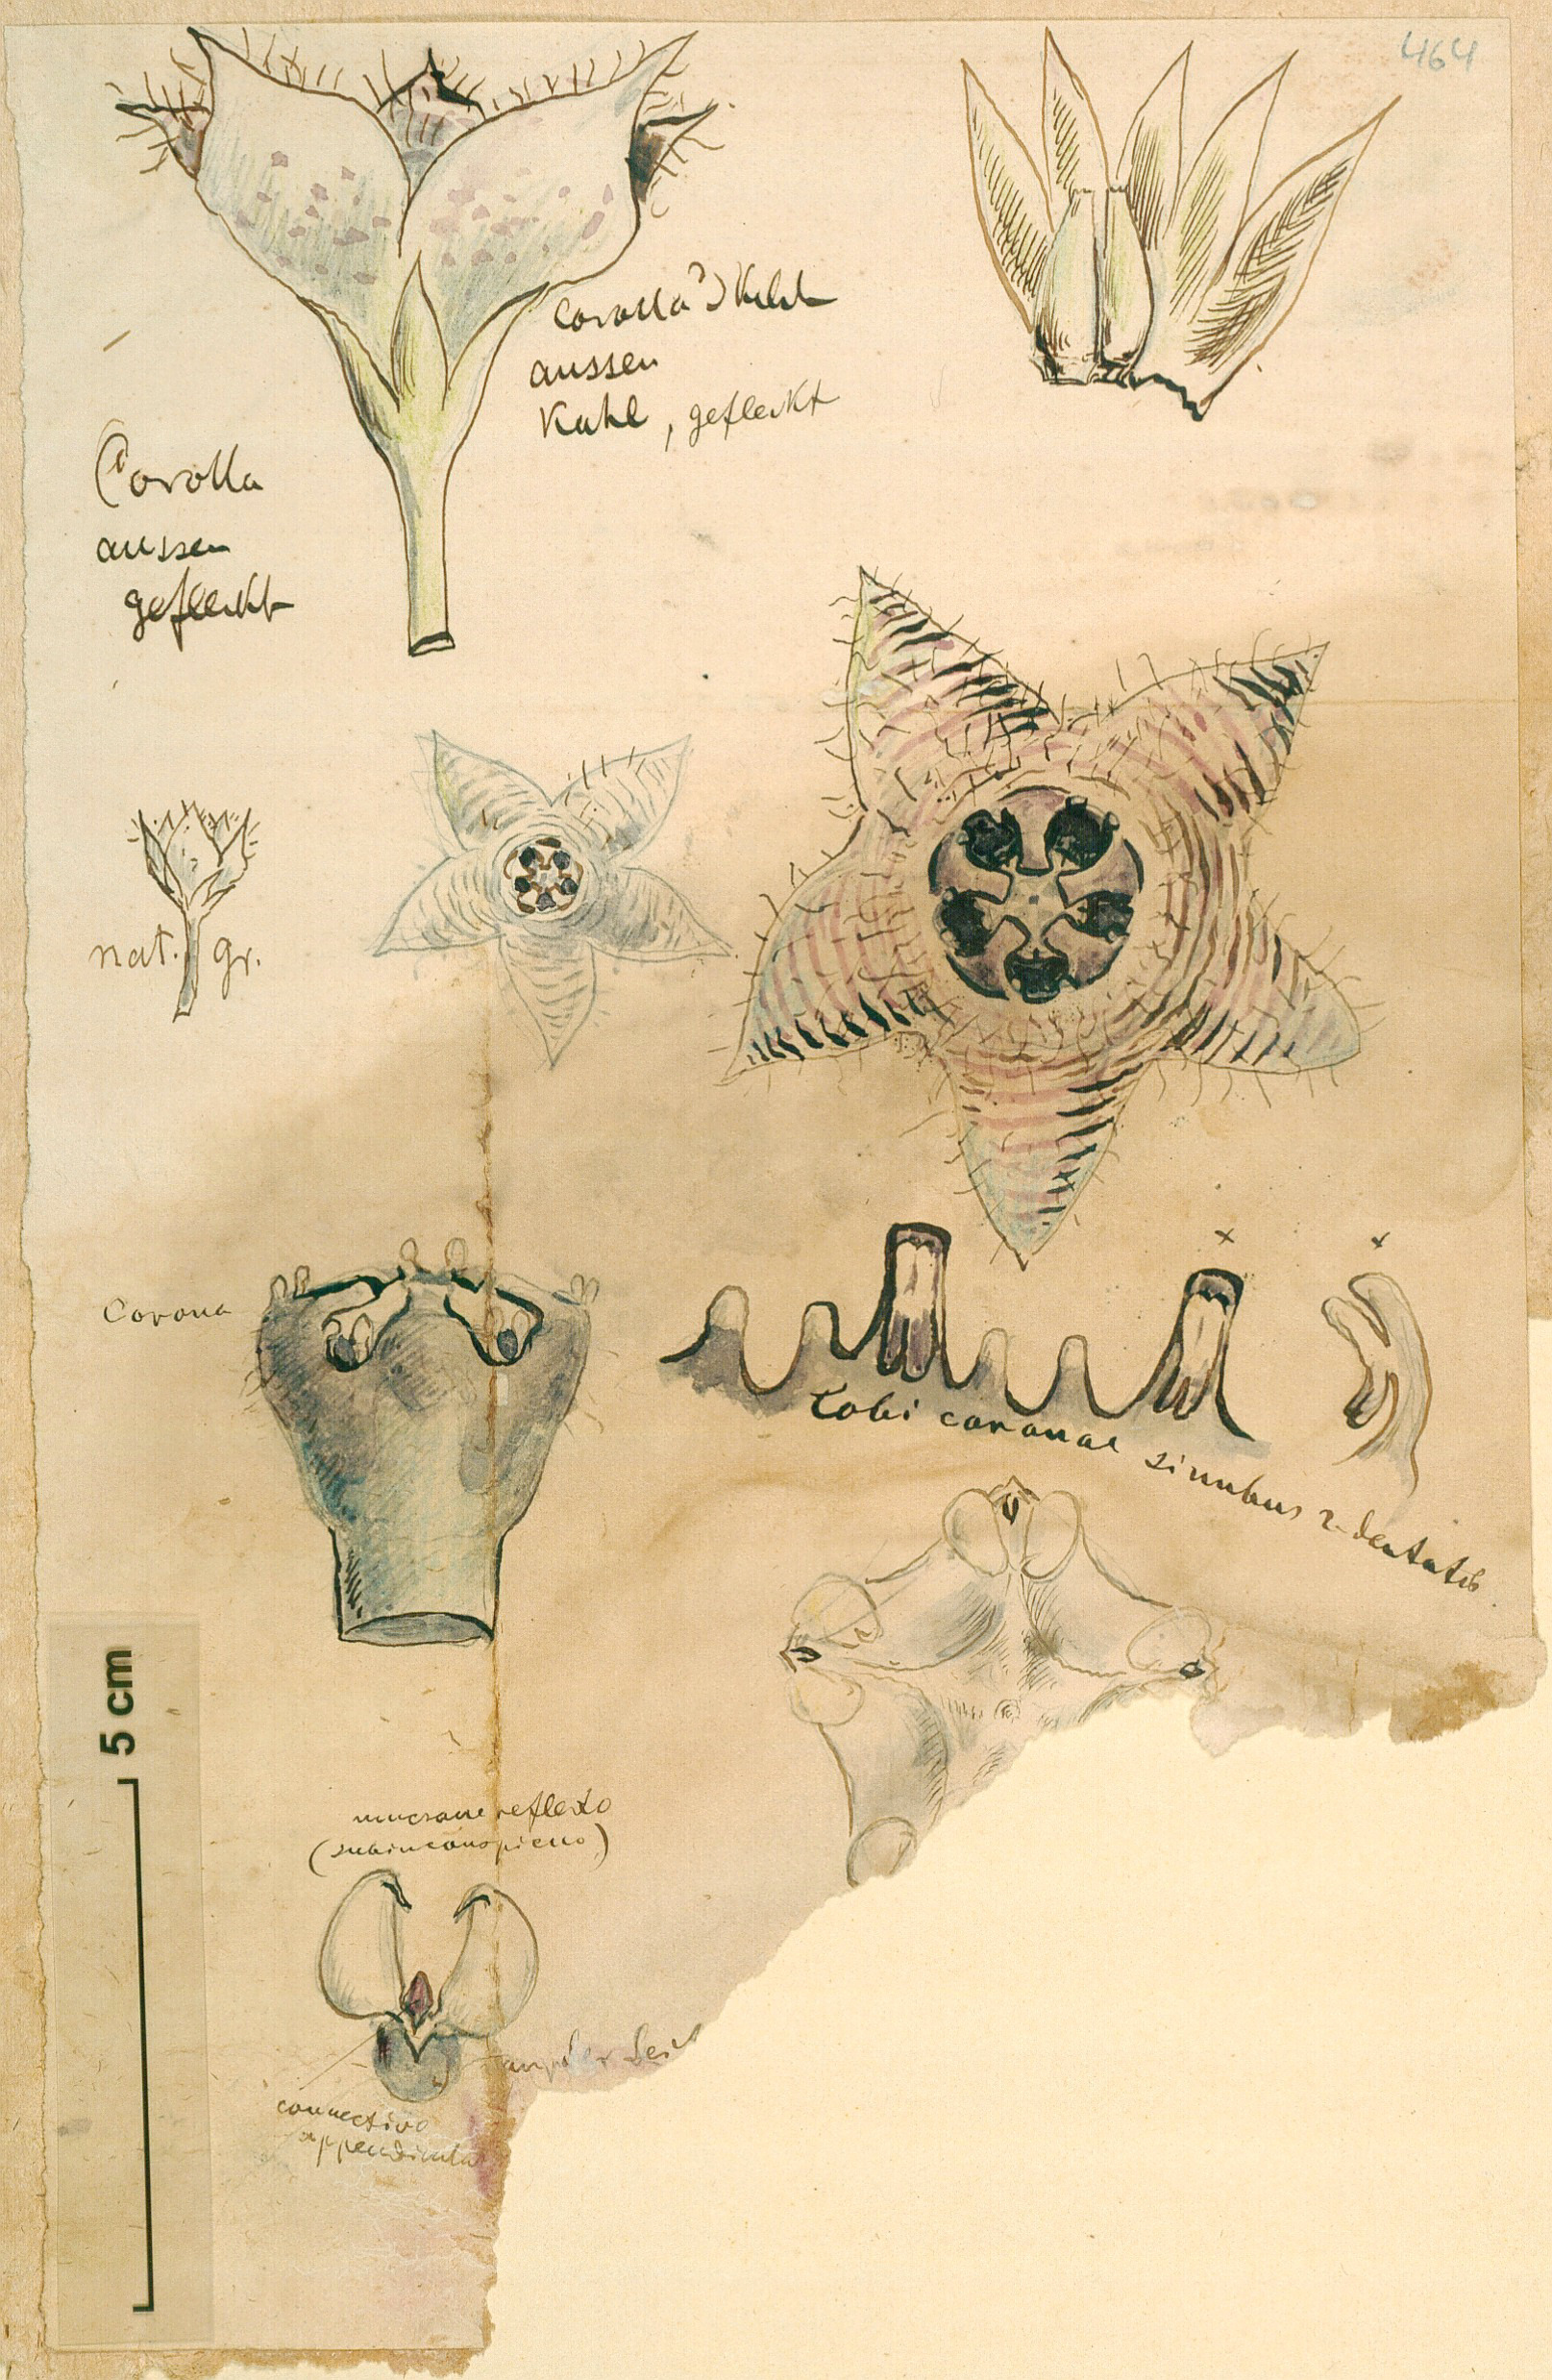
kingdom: Plantae
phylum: Tracheophyta
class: Magnoliopsida
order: Gentianales
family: Apocynaceae
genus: Caralluma
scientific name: Caralluma
